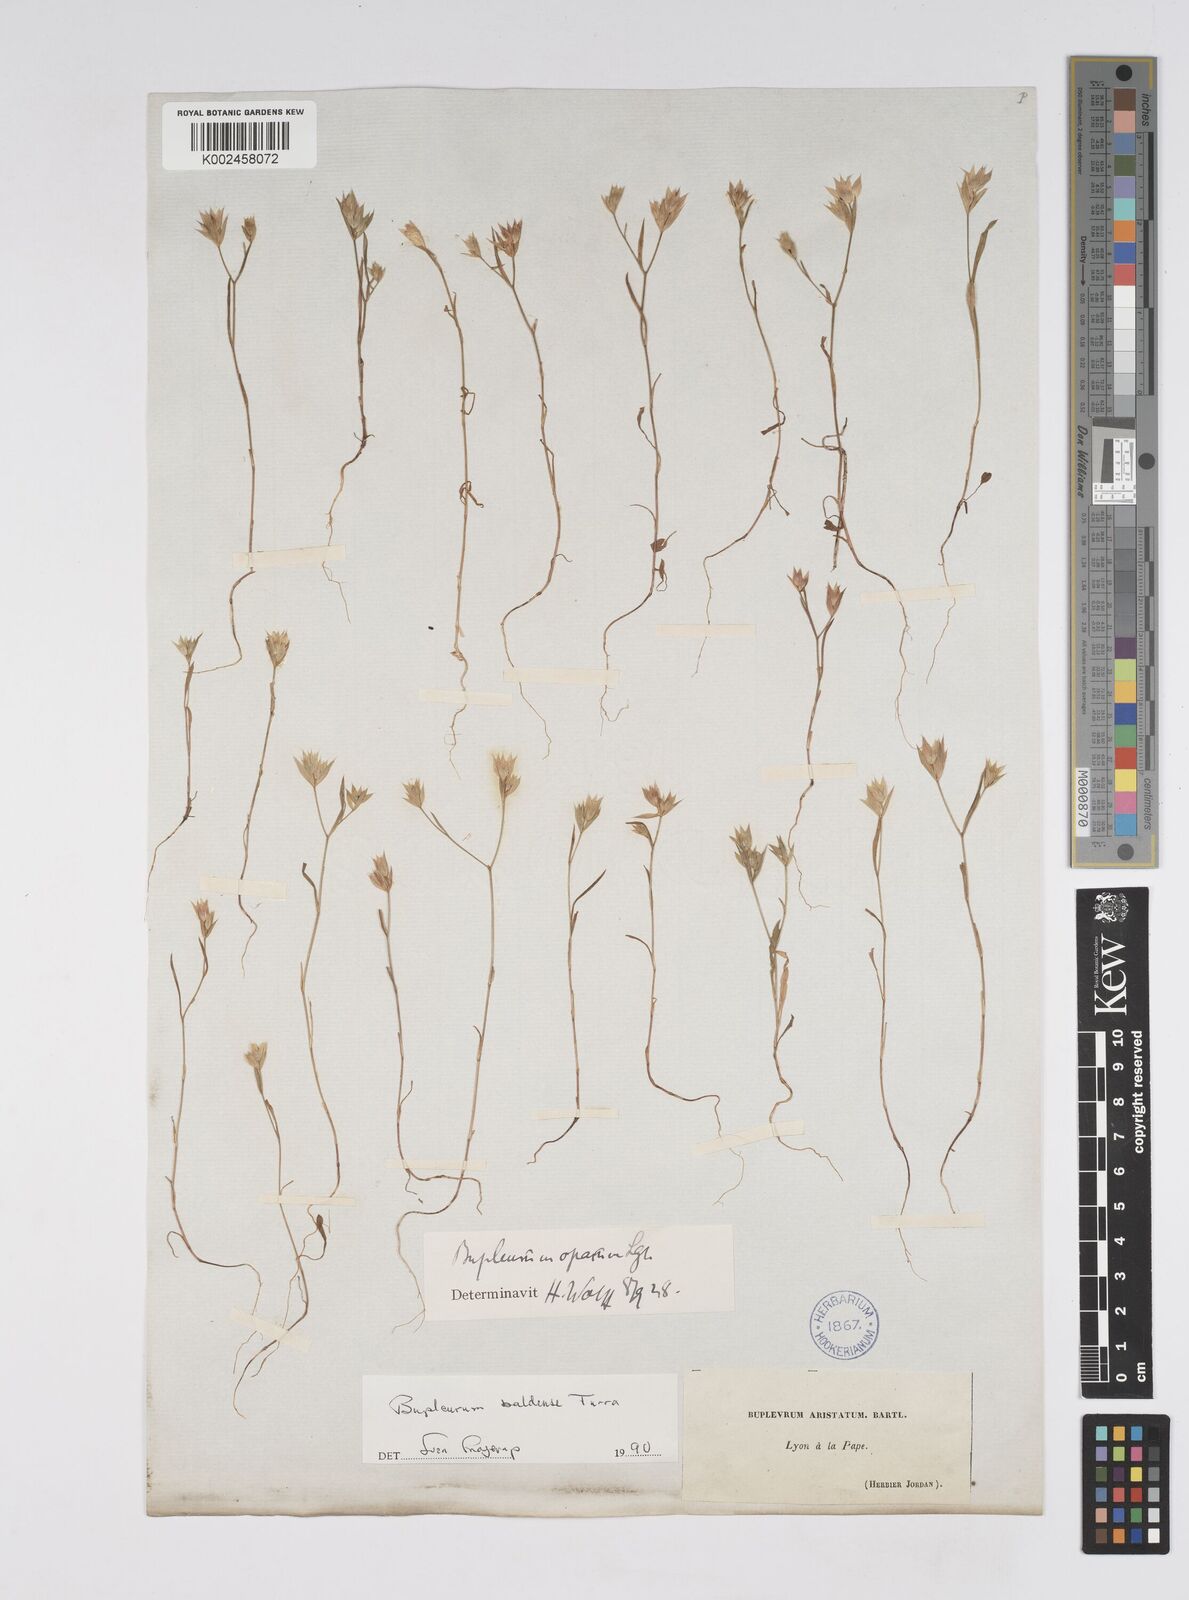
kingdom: Plantae
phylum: Tracheophyta
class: Magnoliopsida
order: Apiales
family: Apiaceae
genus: Bupleurum
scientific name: Bupleurum baldense
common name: Small hare's-ear
